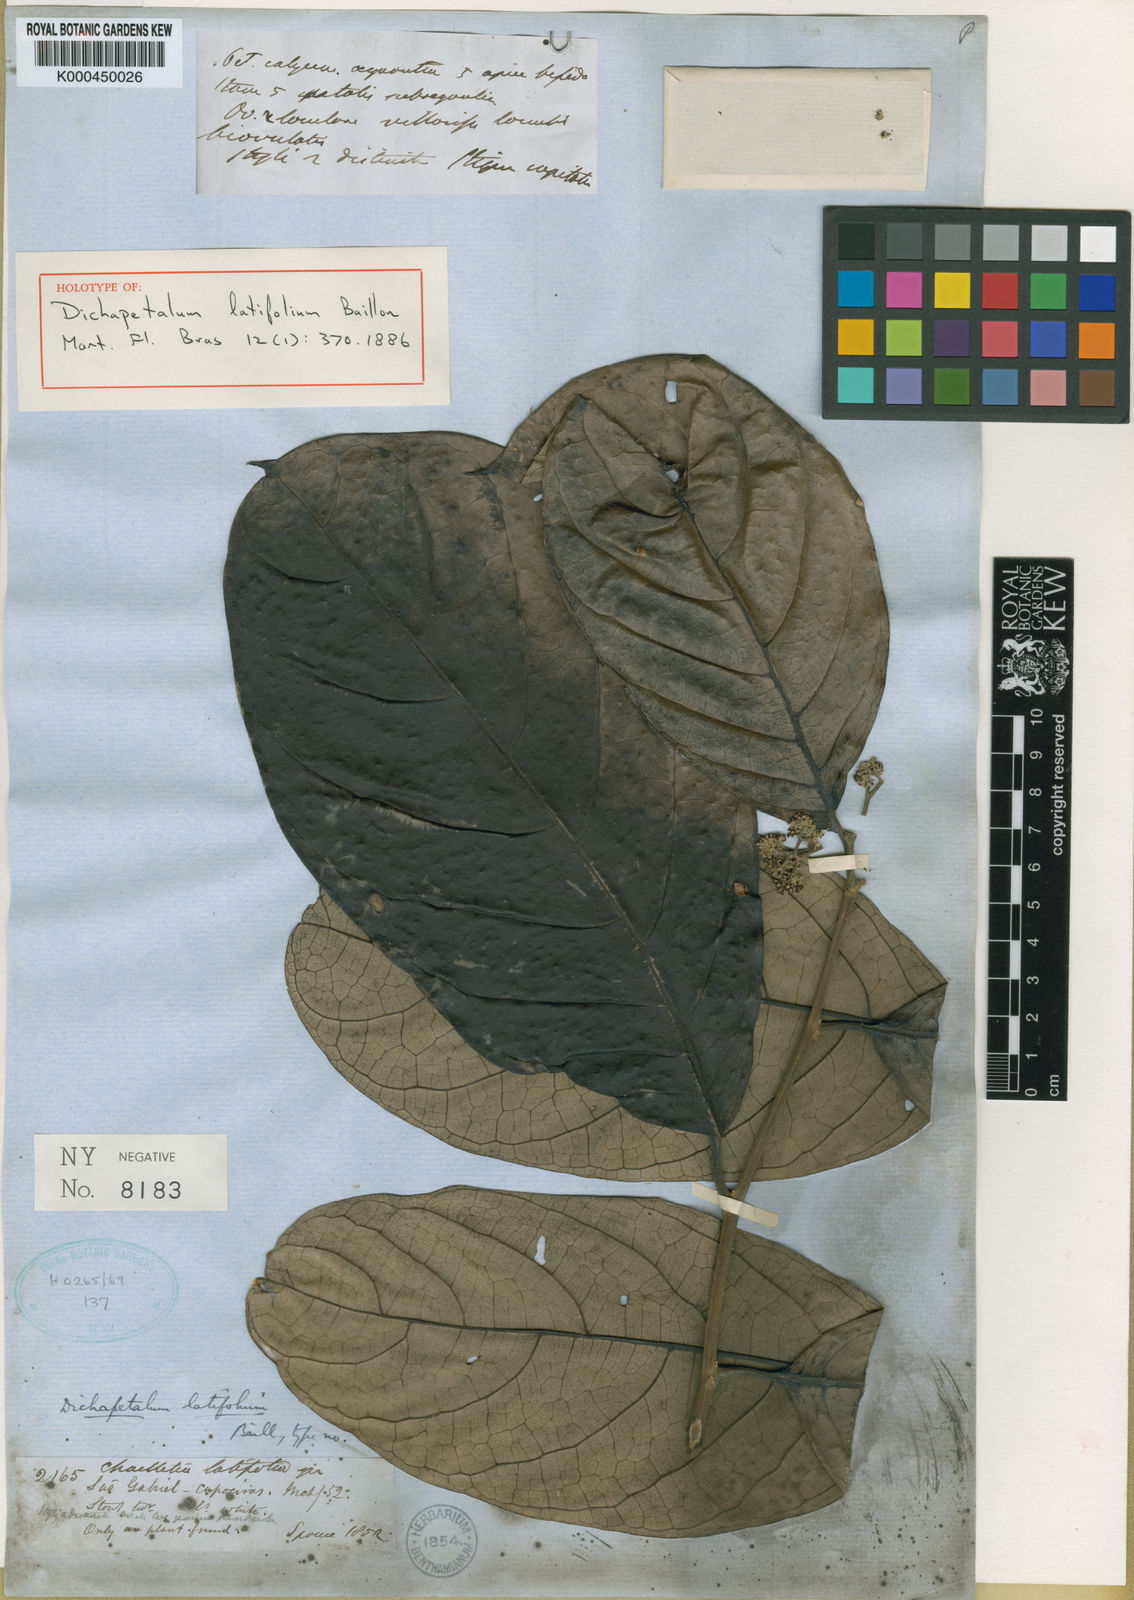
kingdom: Plantae
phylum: Tracheophyta
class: Magnoliopsida
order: Malpighiales
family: Dichapetalaceae
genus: Dichapetalum
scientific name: Dichapetalum latifolium
